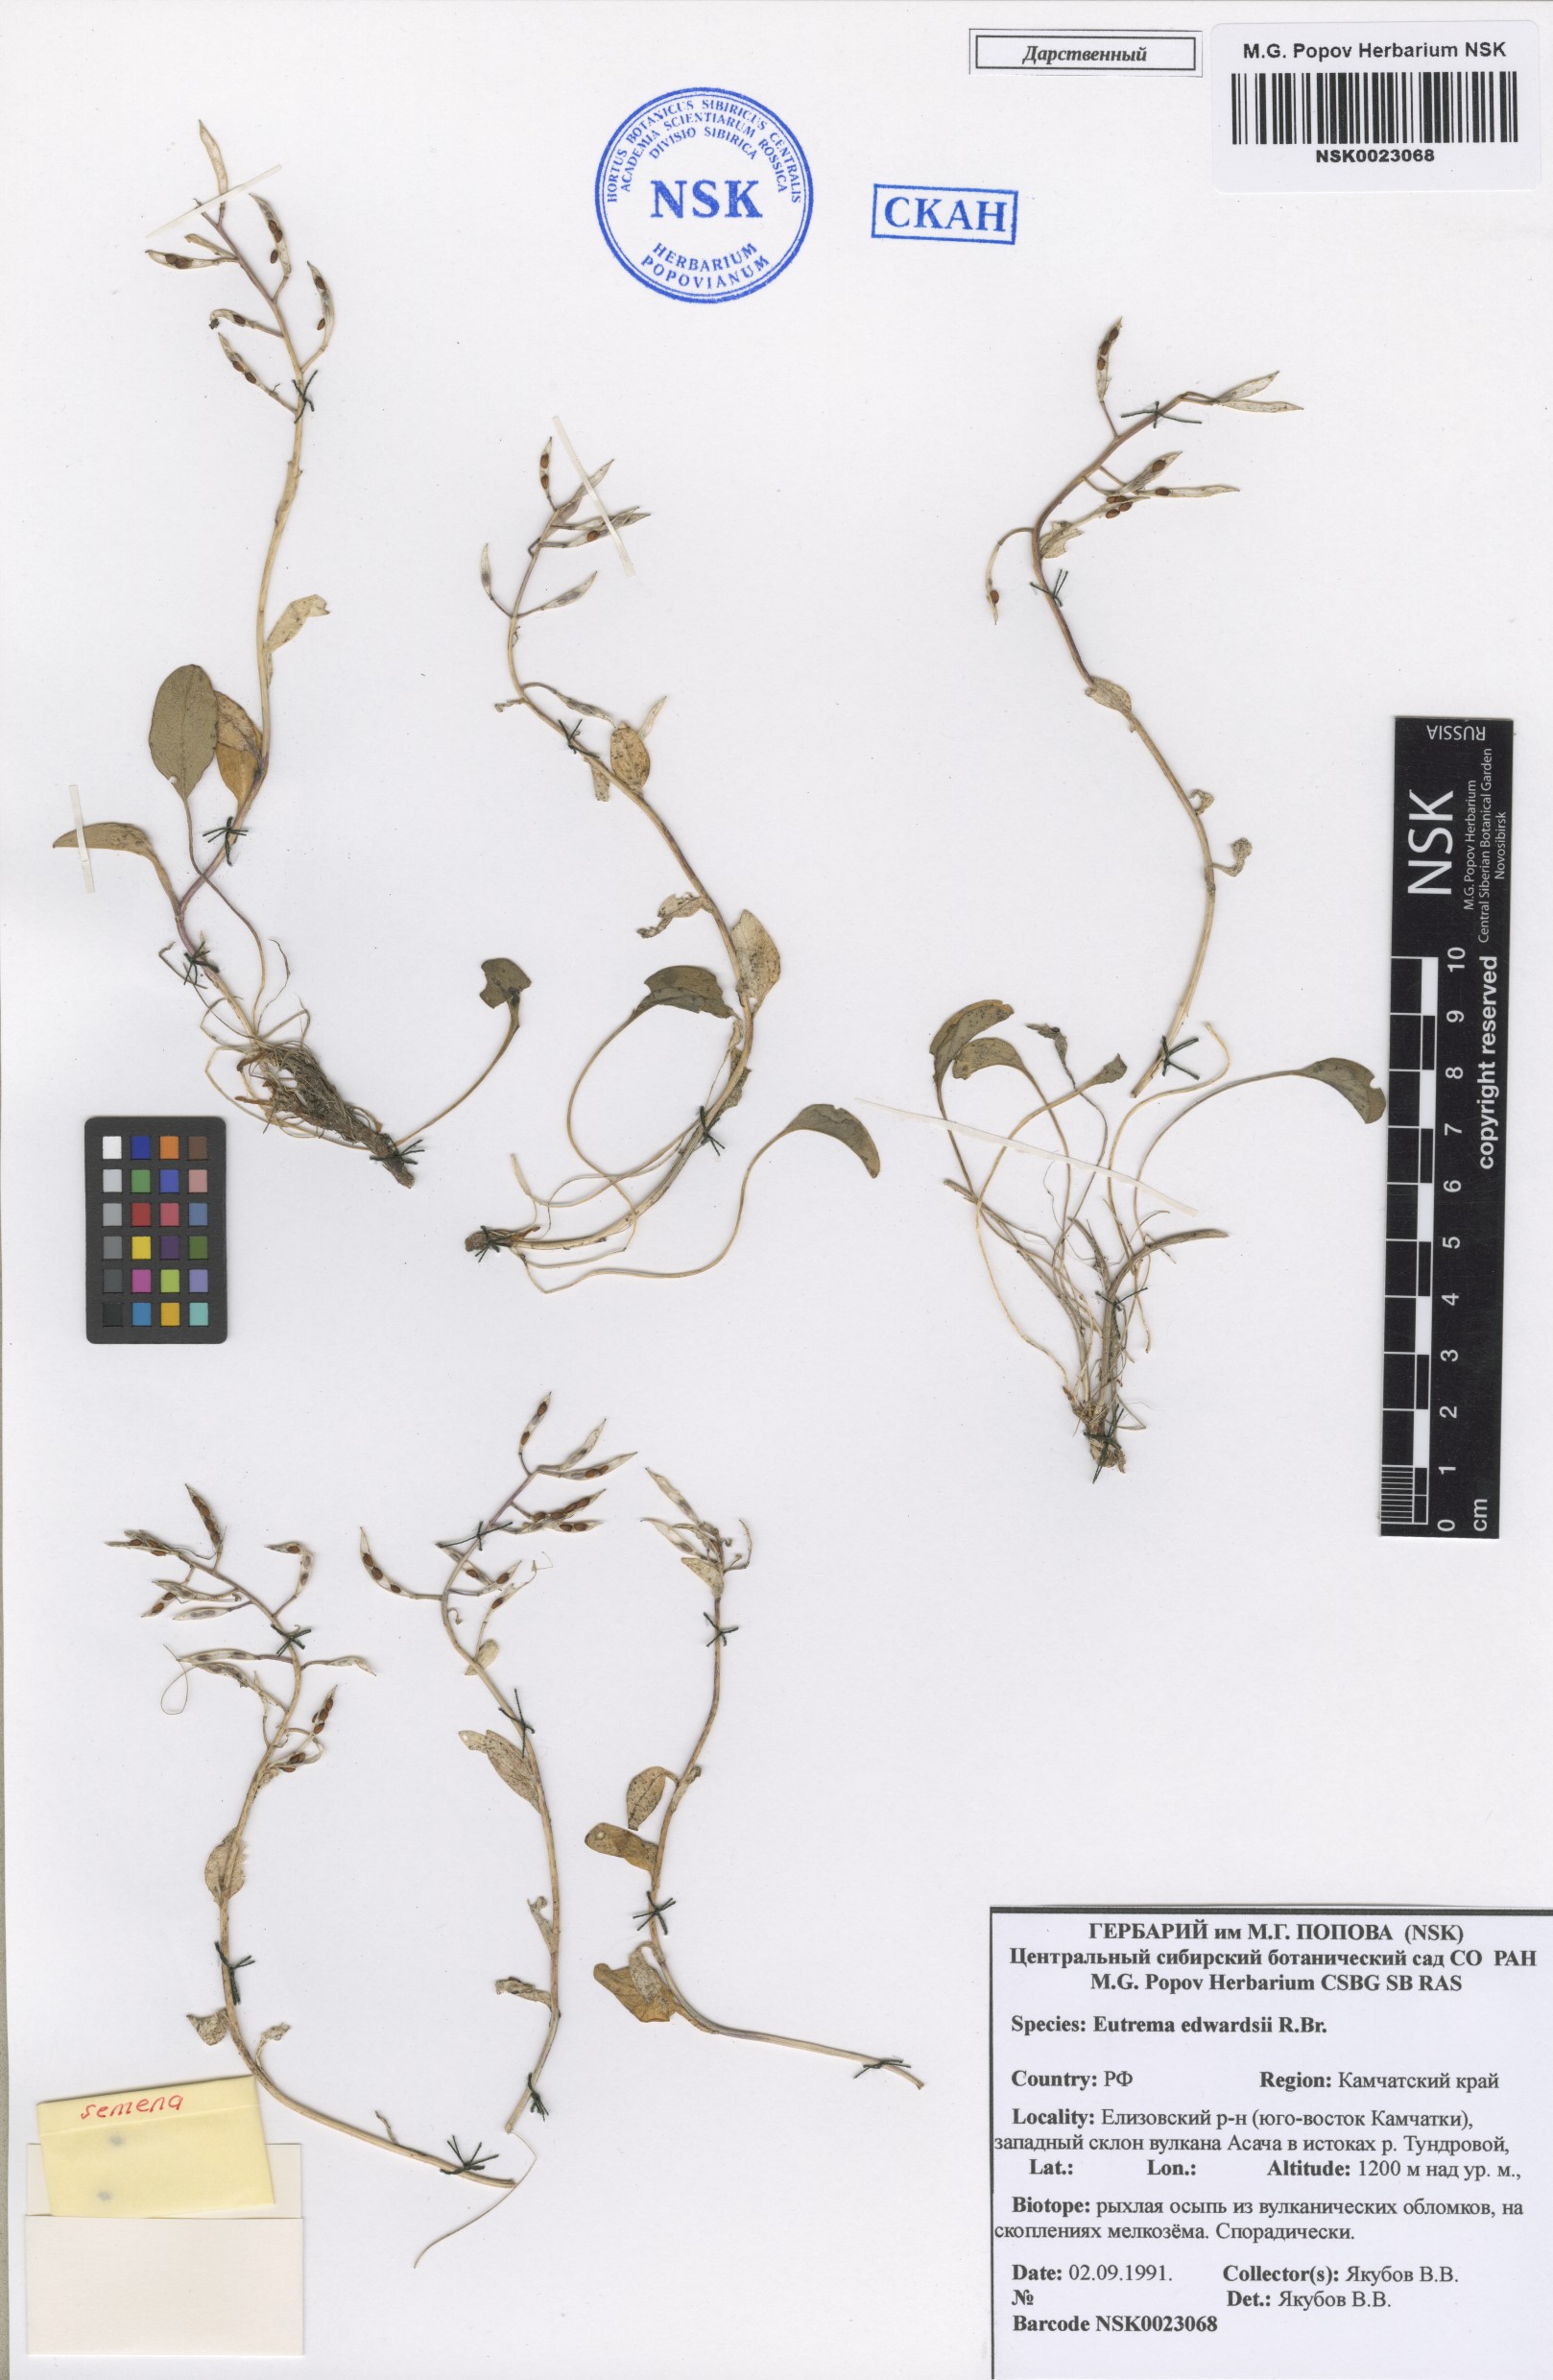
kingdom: Plantae
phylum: Tracheophyta
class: Magnoliopsida
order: Brassicales
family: Brassicaceae
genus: Eutrema
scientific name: Eutrema edwardsii
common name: Penland alpine fen mustard
